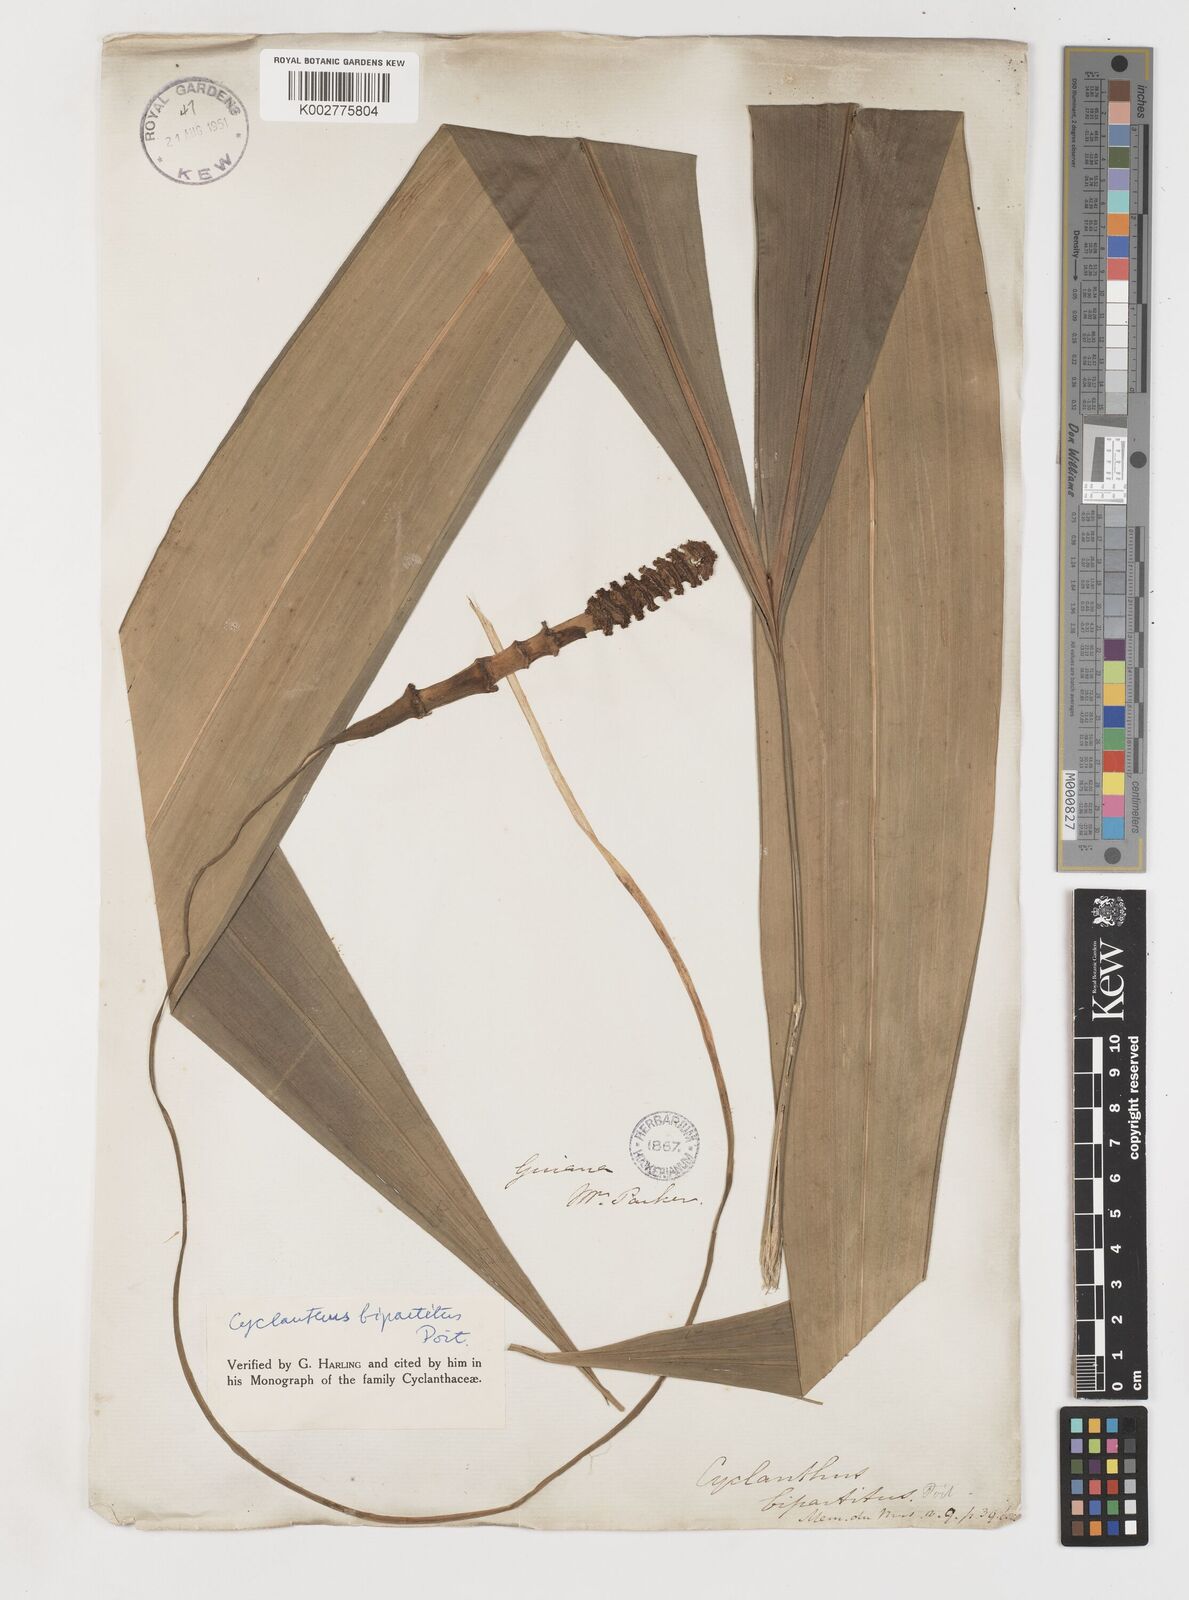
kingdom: Plantae
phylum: Tracheophyta
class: Liliopsida
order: Pandanales
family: Cyclanthaceae
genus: Cyclanthus
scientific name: Cyclanthus bipartitus
